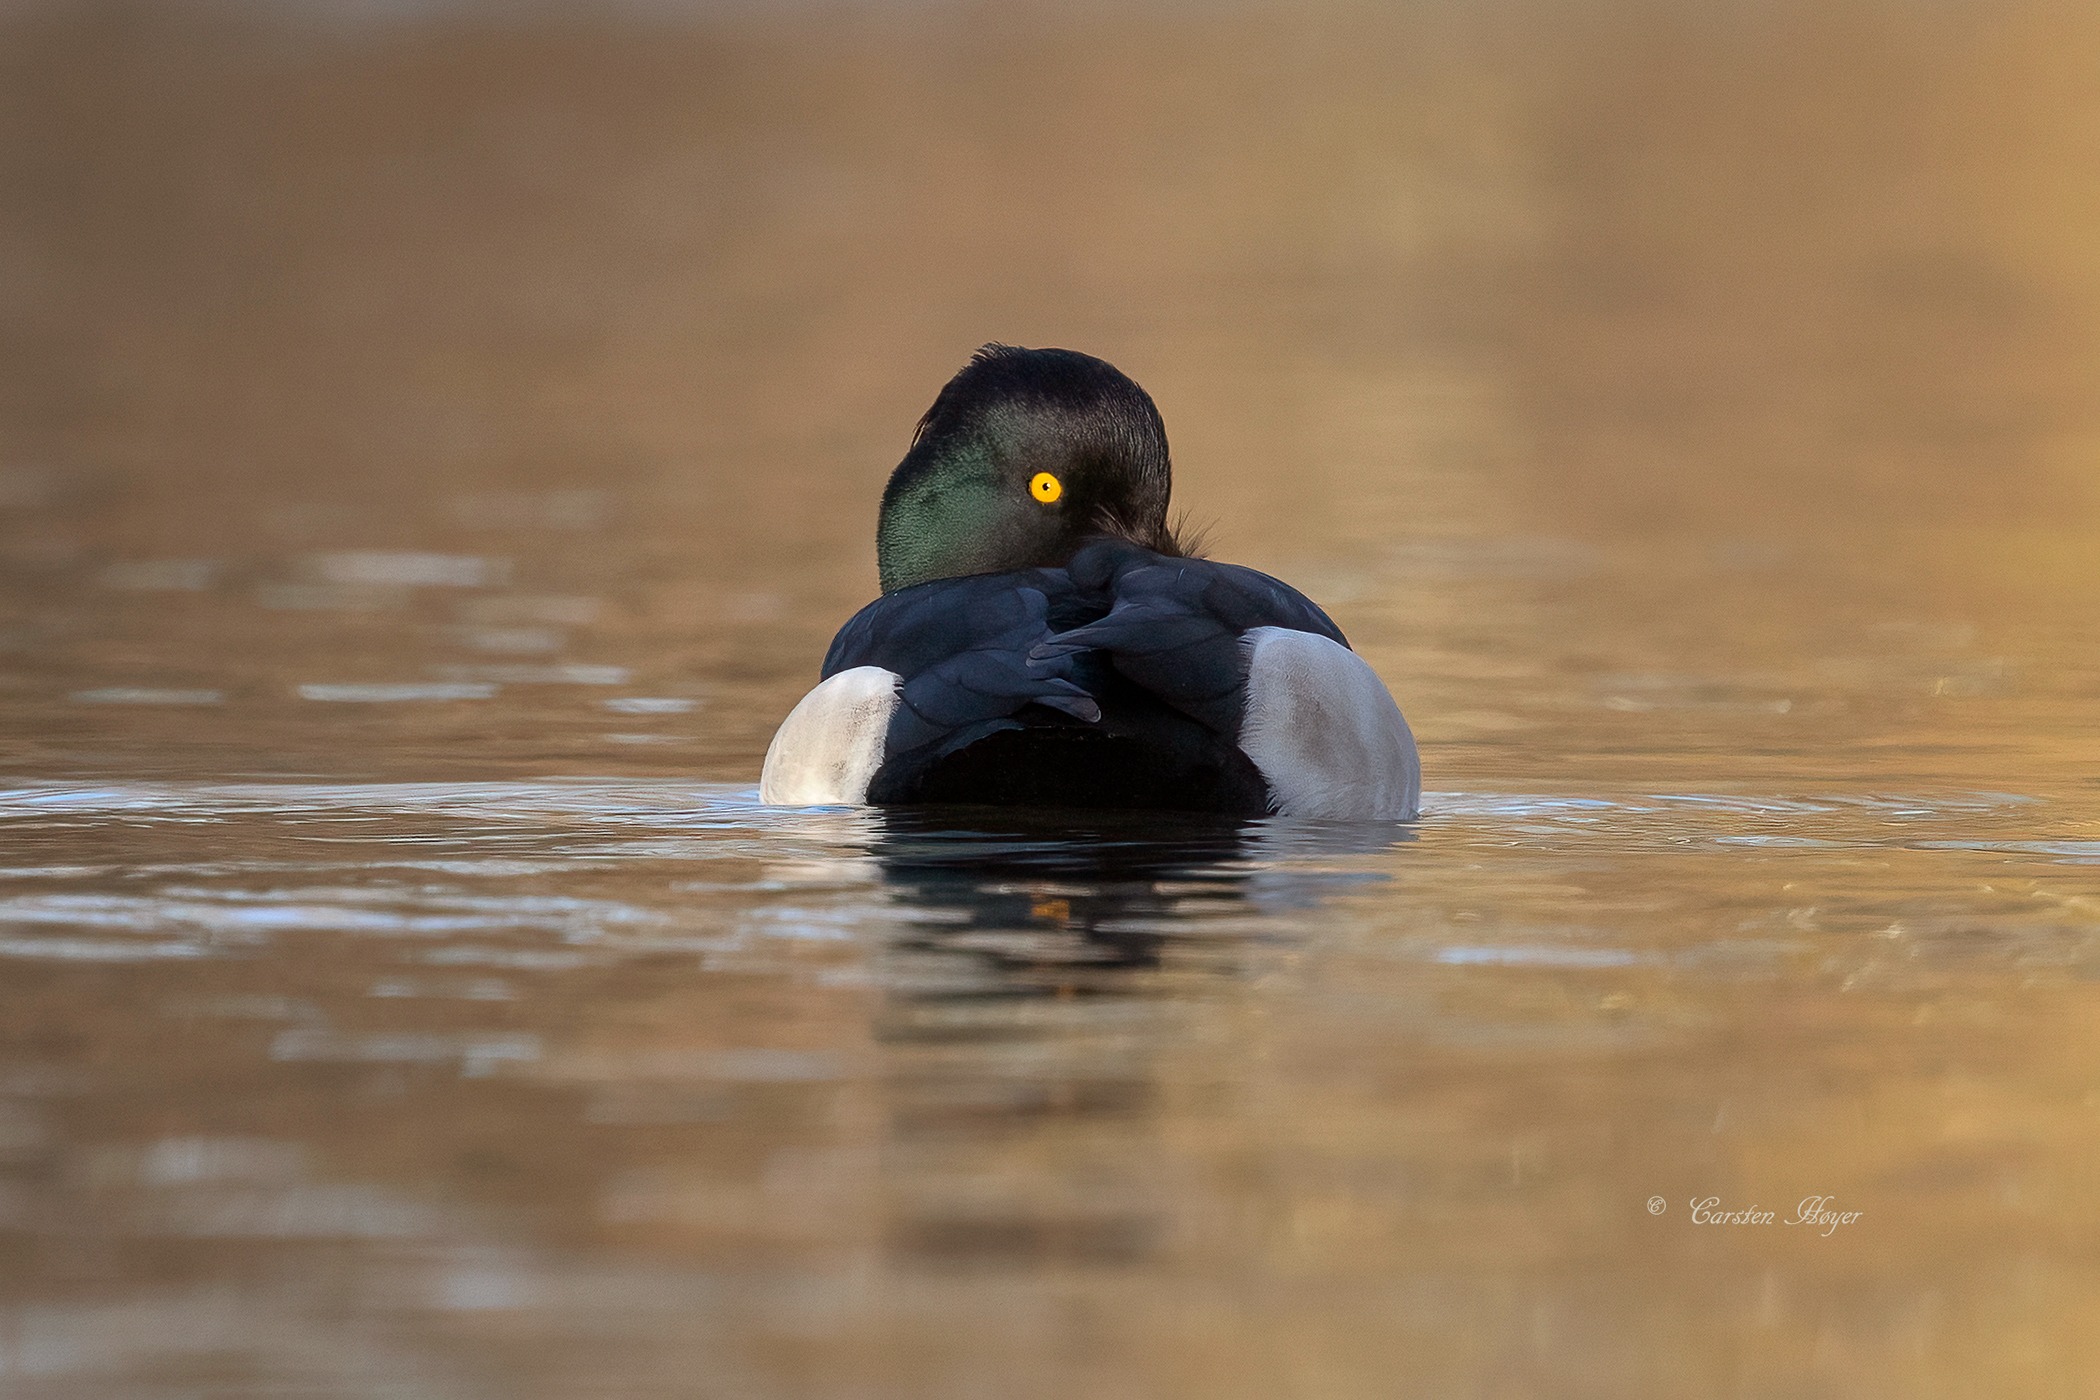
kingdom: Animalia
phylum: Chordata
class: Aves
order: Anseriformes
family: Anatidae
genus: Aythya
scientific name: Aythya fuligula
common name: Troldand
